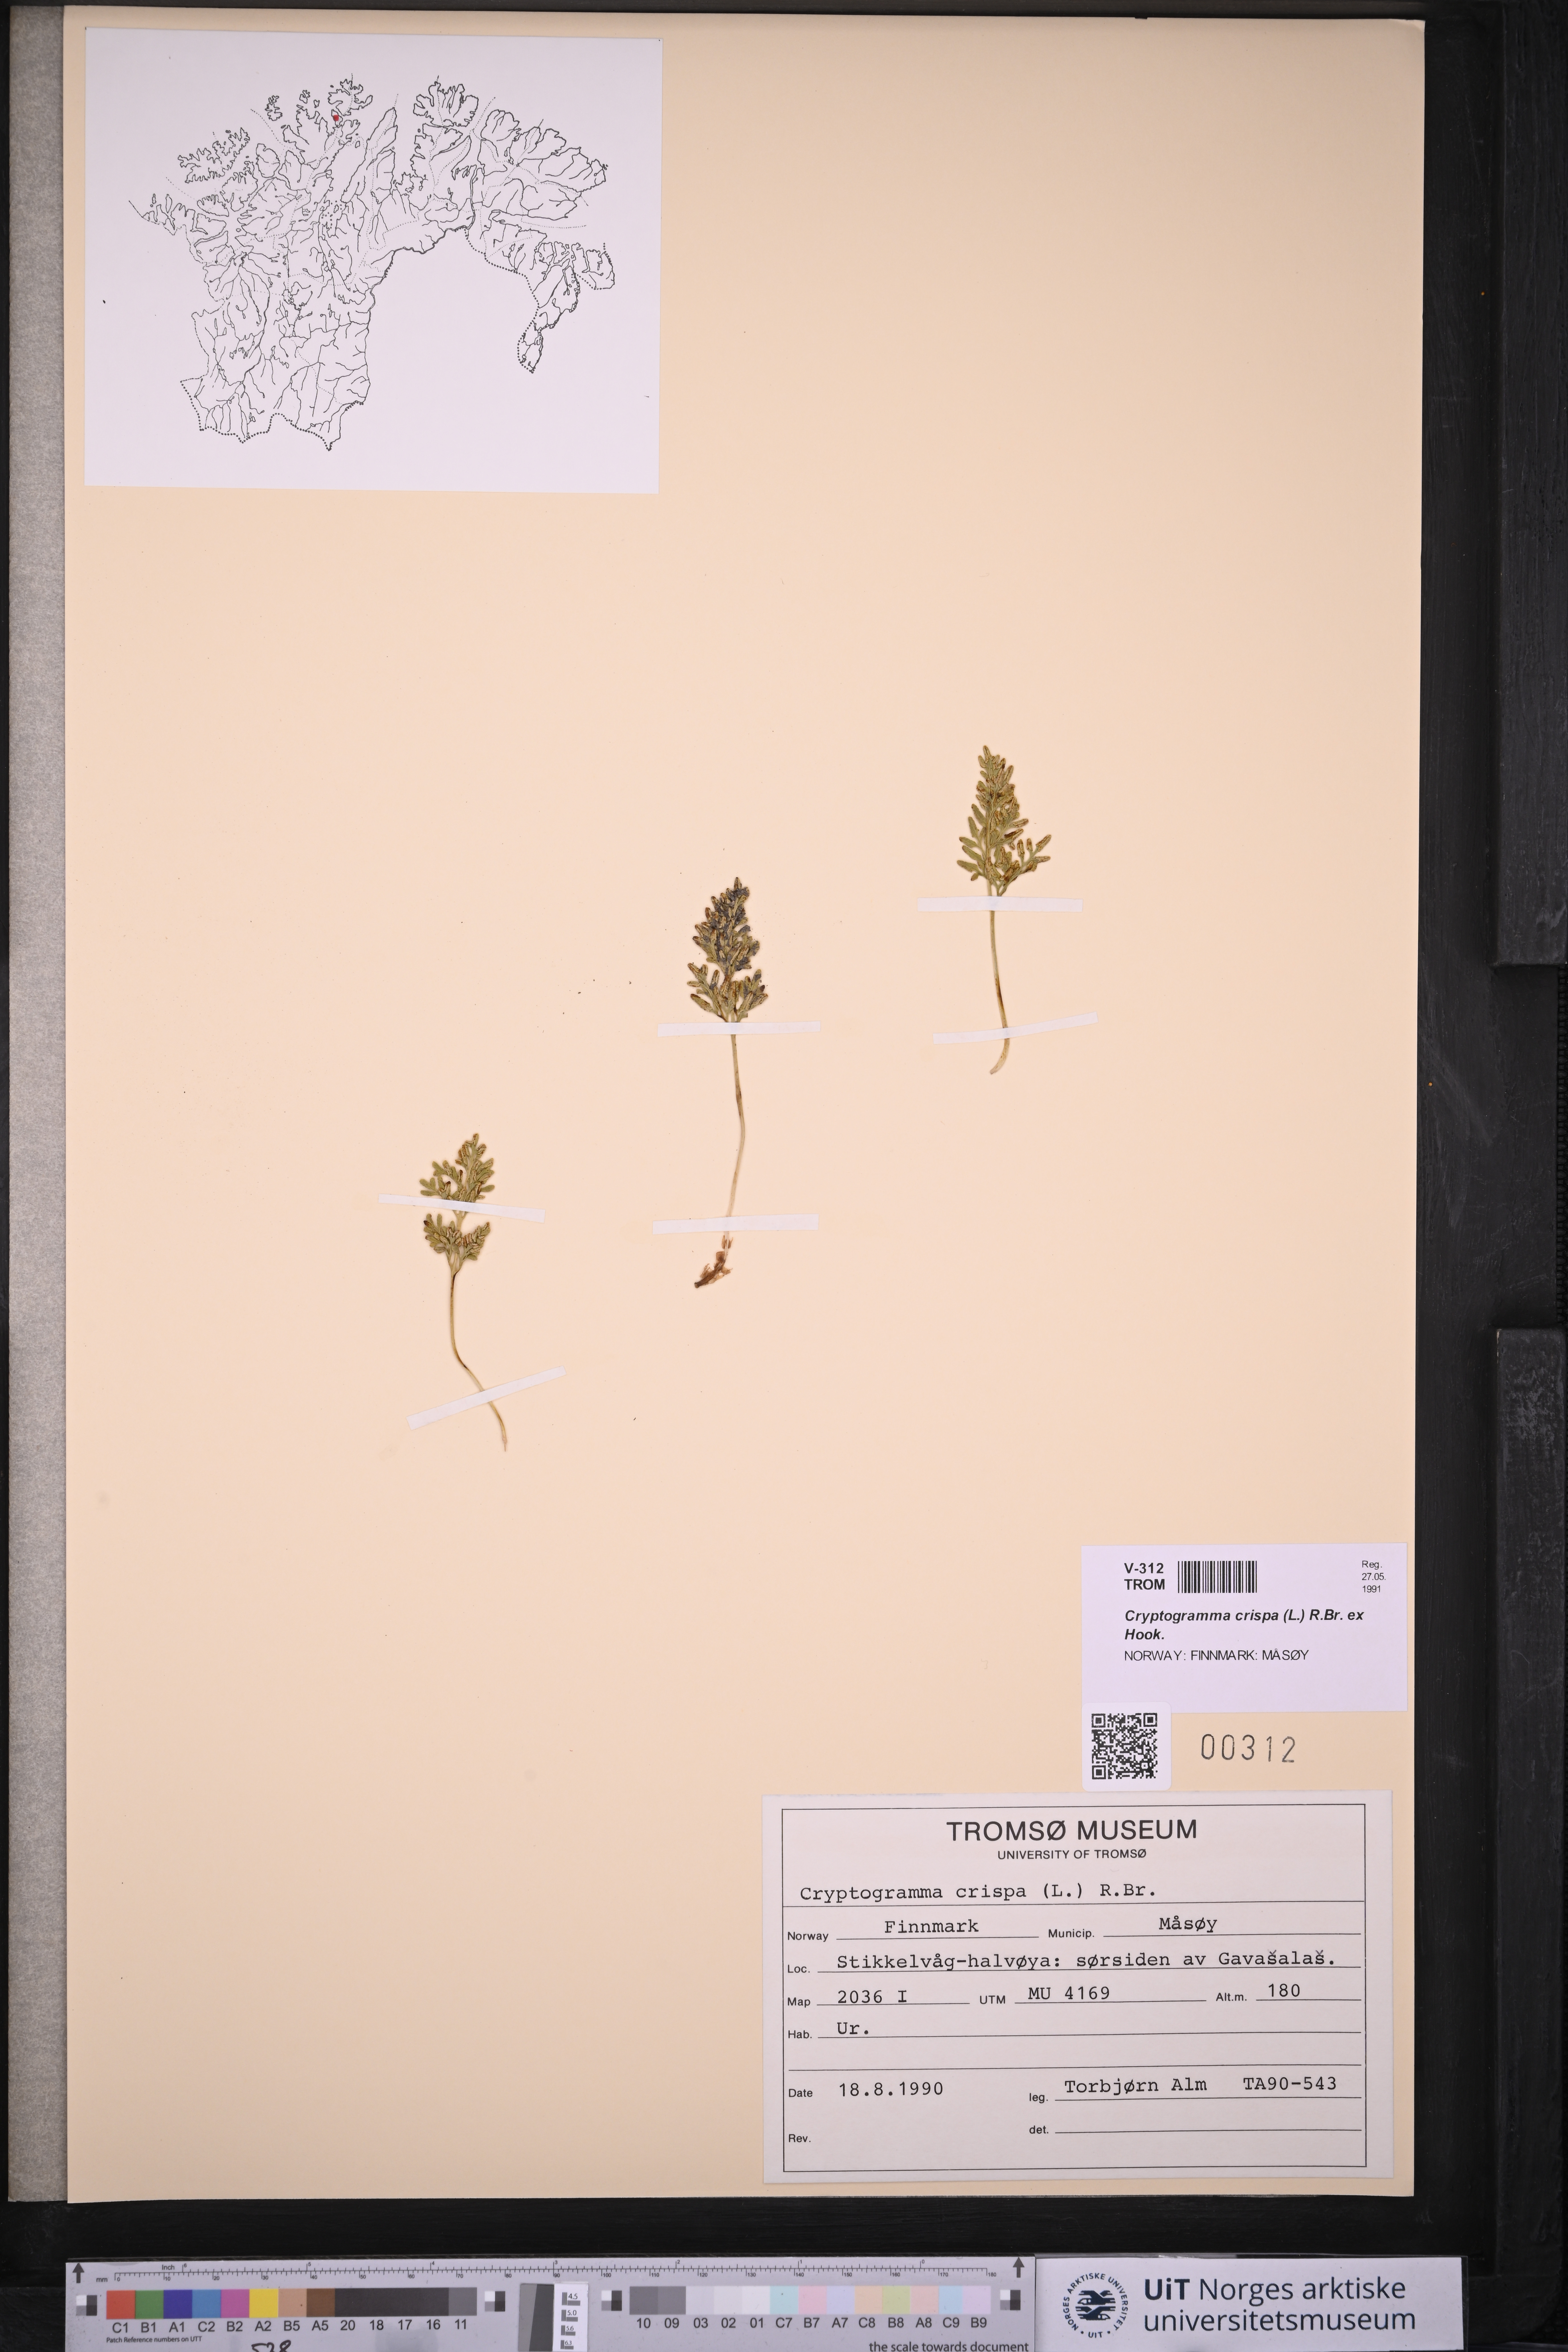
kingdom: Plantae
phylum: Tracheophyta
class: Polypodiopsida
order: Polypodiales
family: Pteridaceae
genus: Cryptogramma
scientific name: Cryptogramma crispa
